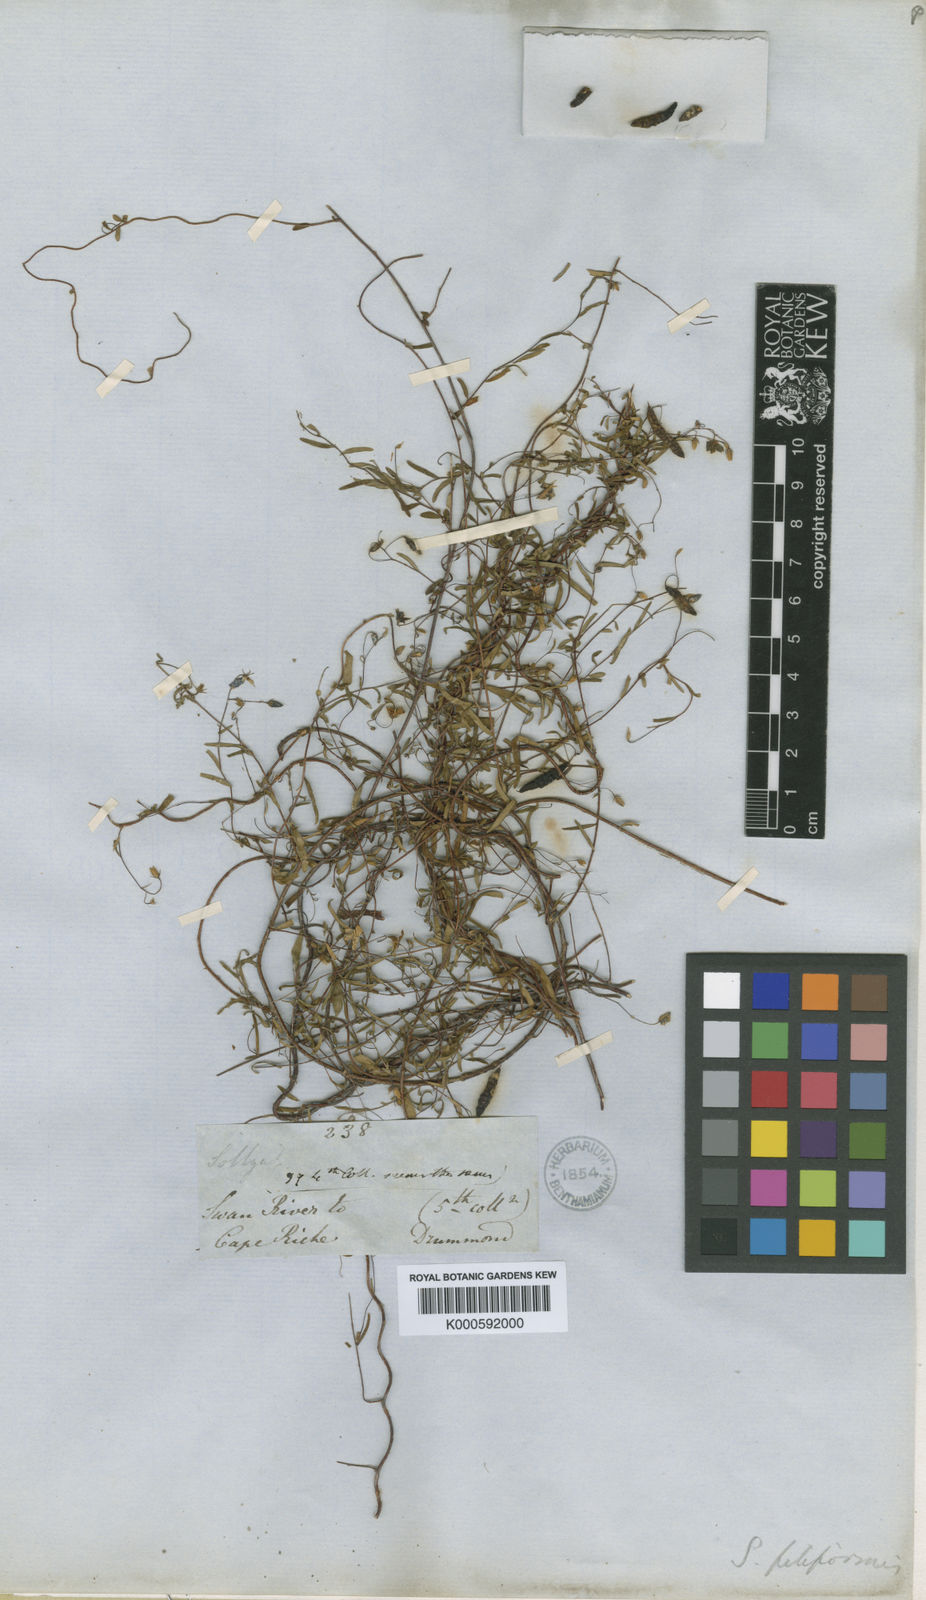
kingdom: Plantae
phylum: Tracheophyta
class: Magnoliopsida
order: Apiales
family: Pittosporaceae
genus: Billardiera
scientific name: Billardiera drummondii
